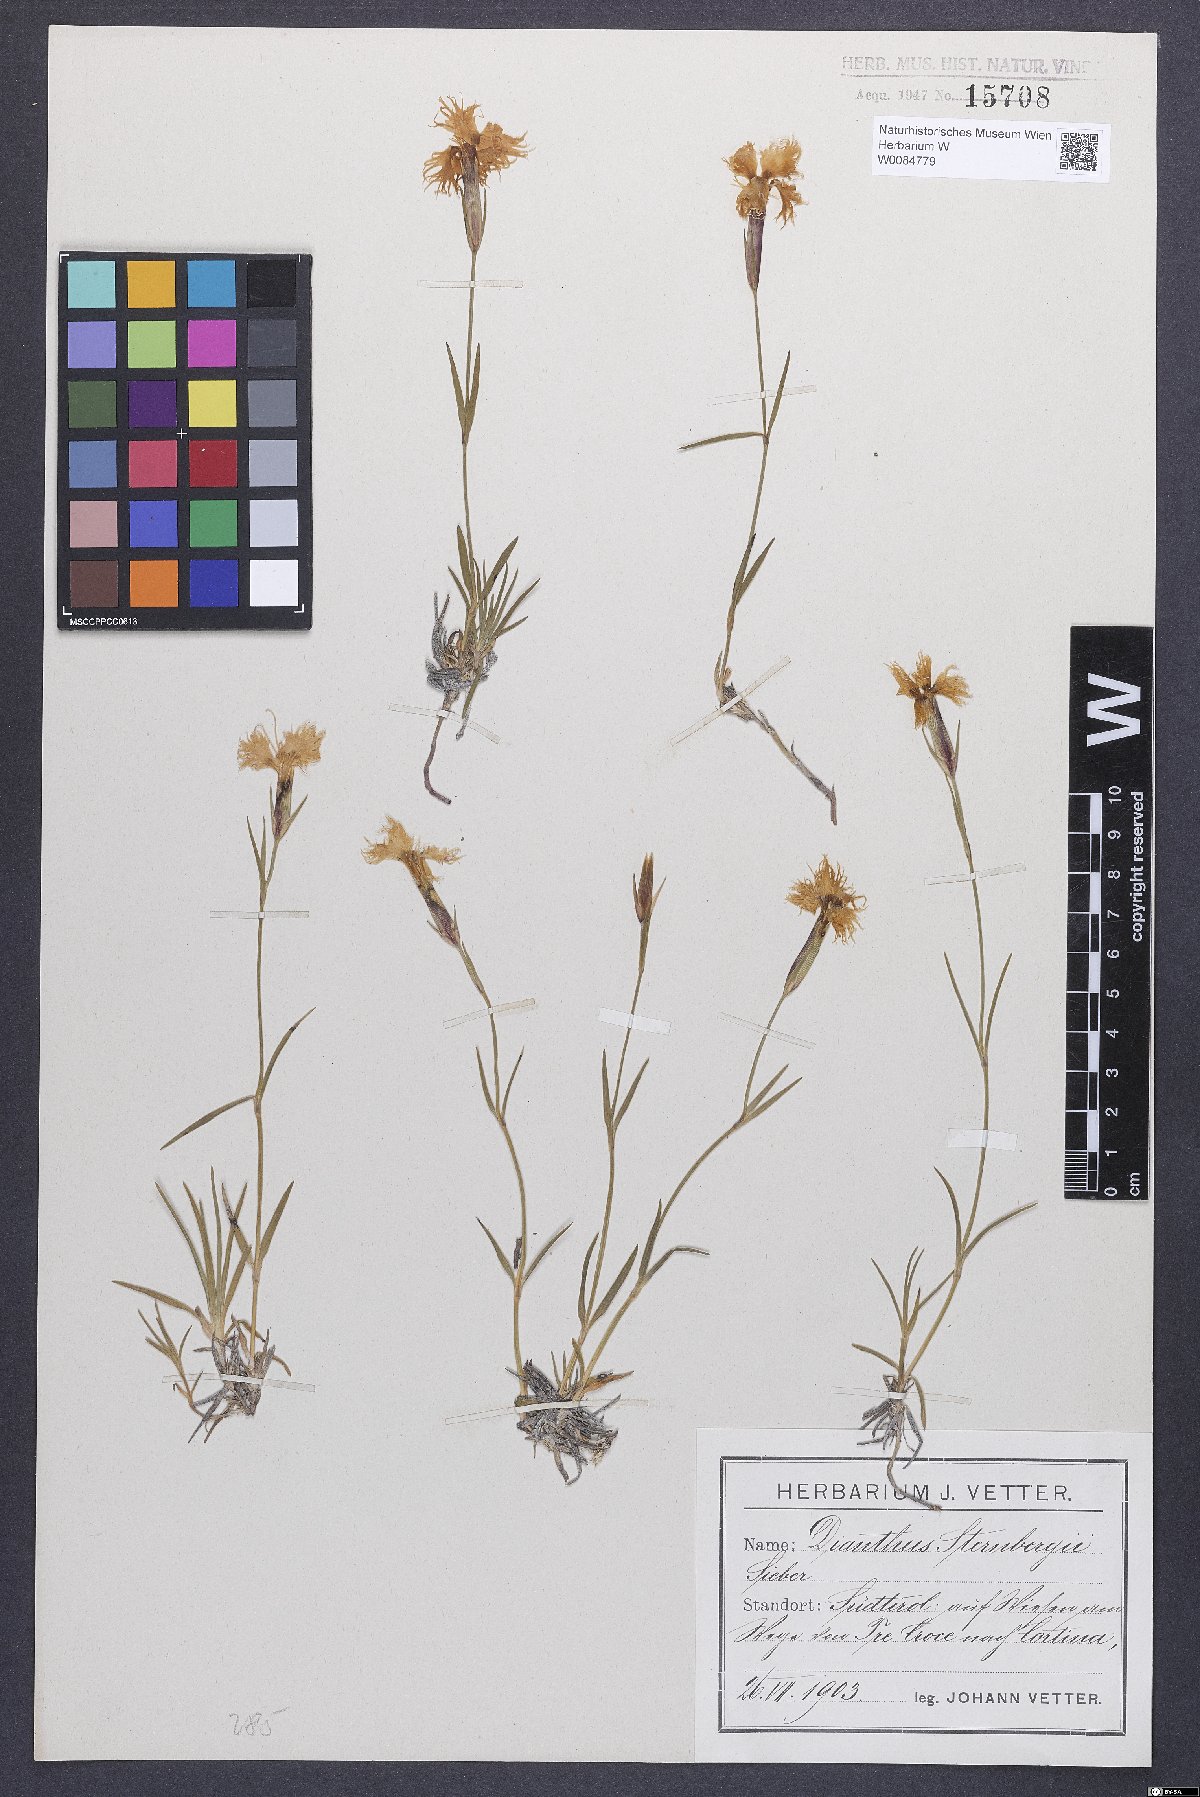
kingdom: Plantae
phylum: Tracheophyta
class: Magnoliopsida
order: Caryophyllales
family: Caryophyllaceae
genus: Dianthus
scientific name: Dianthus monspessulanus
